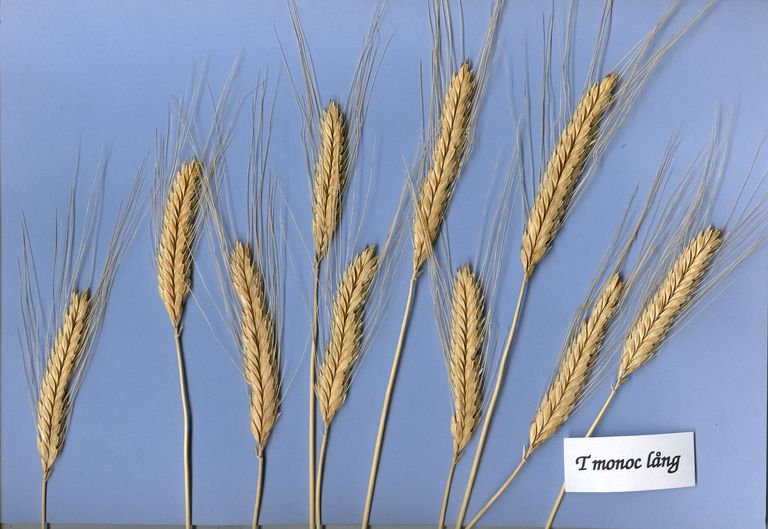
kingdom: Plantae
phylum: Tracheophyta
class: Liliopsida
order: Poales
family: Poaceae
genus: Triticum
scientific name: Triticum monococcum
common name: Einkorn
